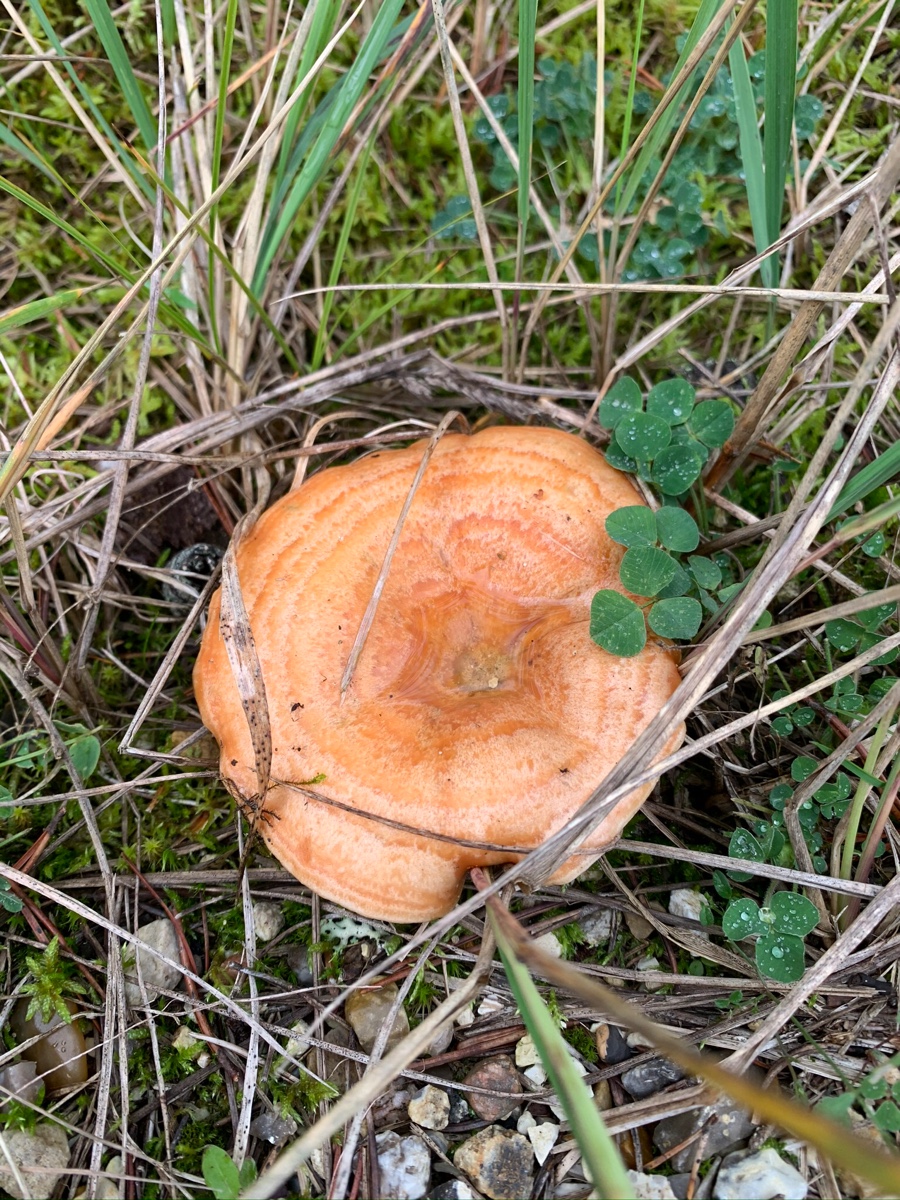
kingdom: Fungi
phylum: Basidiomycota
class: Agaricomycetes
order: Russulales
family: Russulaceae
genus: Lactarius
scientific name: Lactarius deliciosus
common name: velsmagende mælkehat
